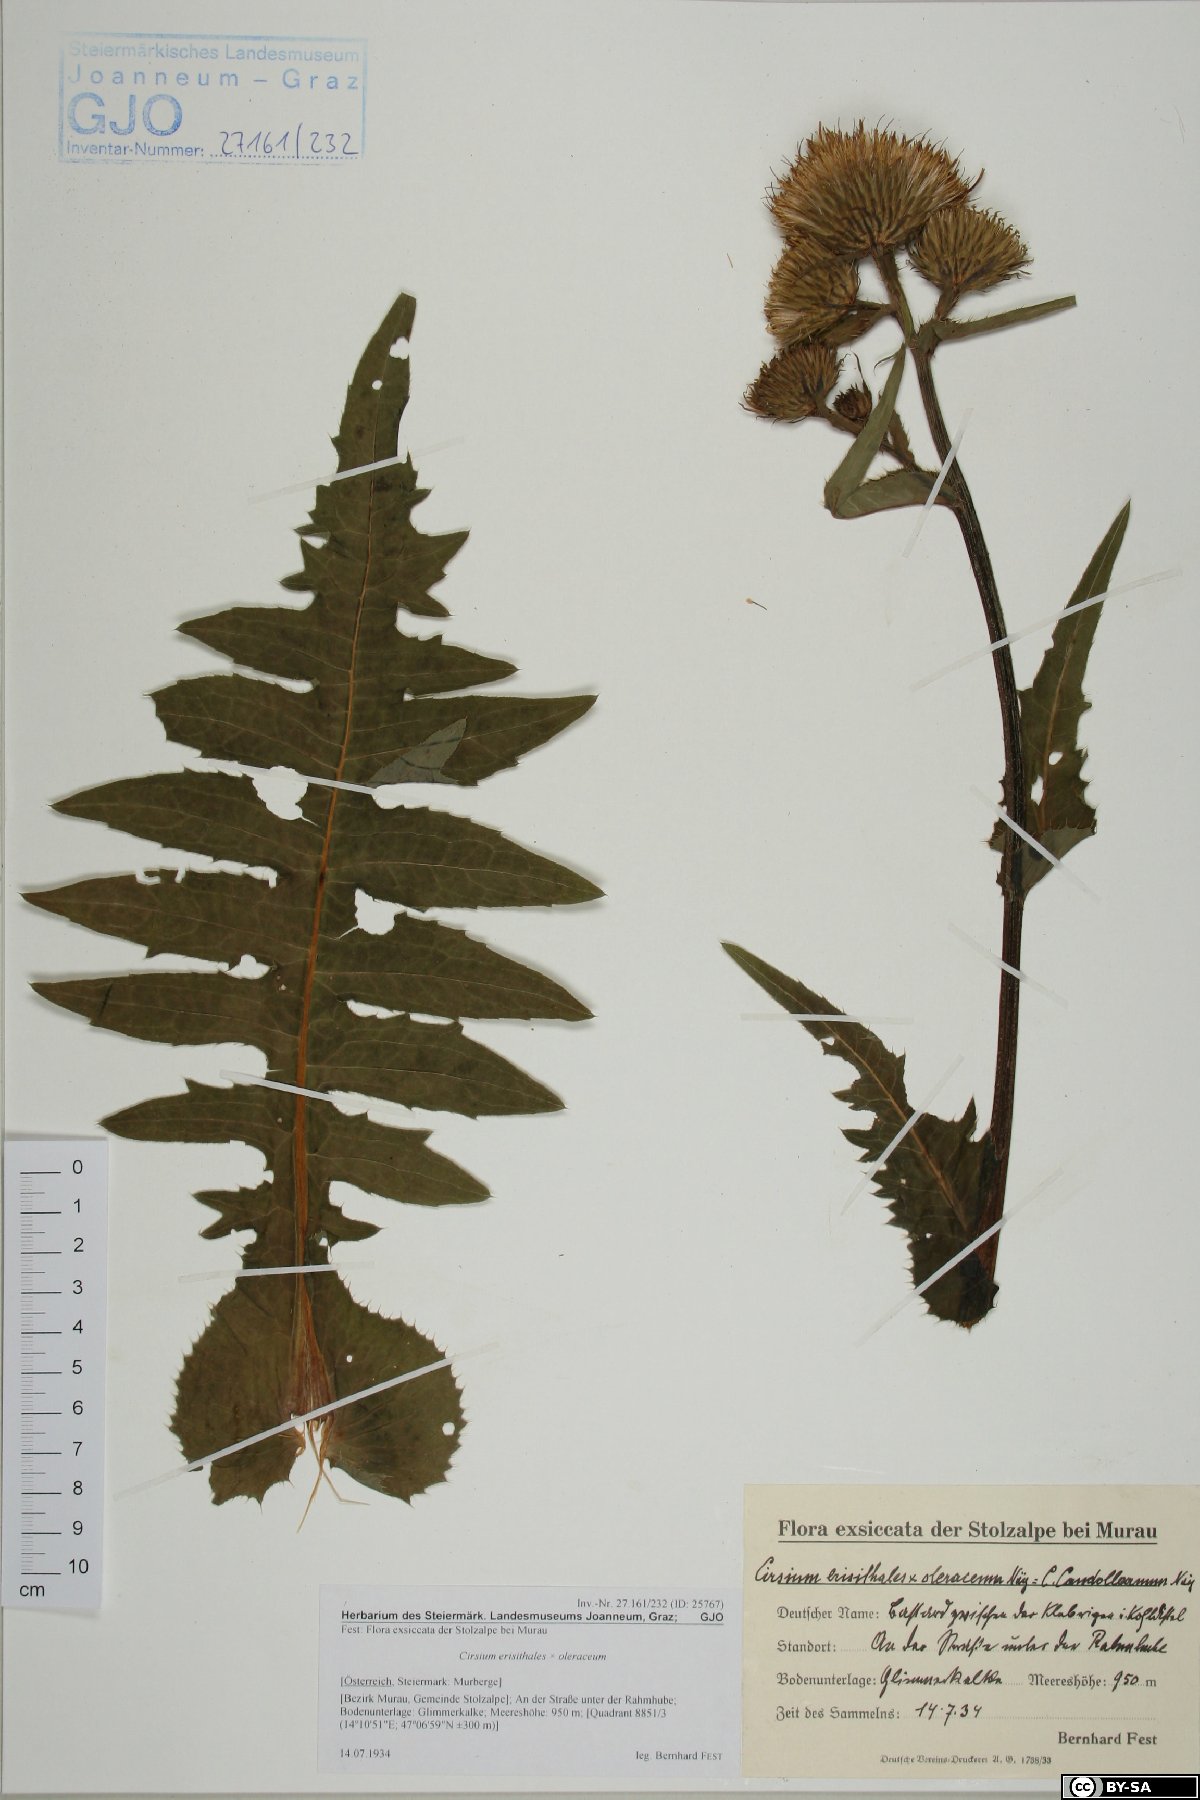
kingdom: Plantae
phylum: Tracheophyta
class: Magnoliopsida
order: Asterales
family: Asteraceae
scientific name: Asteraceae
